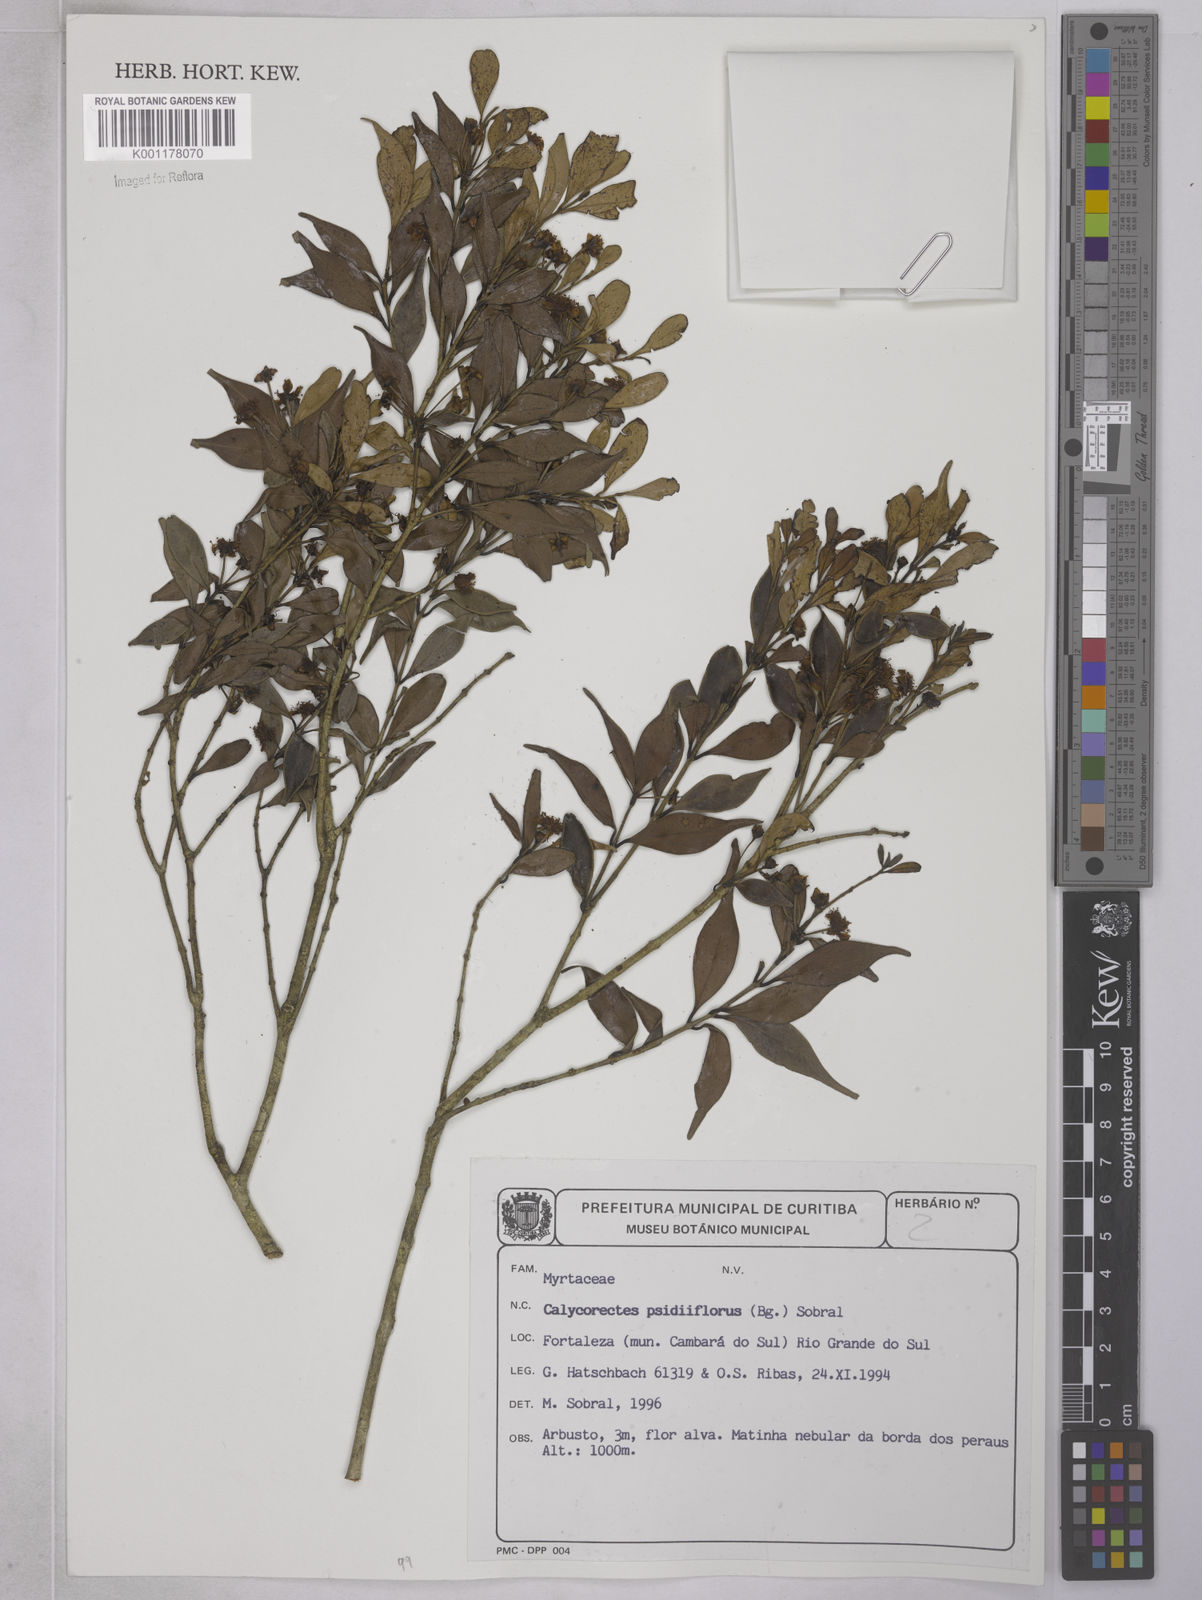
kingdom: Plantae
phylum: Tracheophyta
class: Magnoliopsida
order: Myrtales
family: Myrtaceae
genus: Eugenia
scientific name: Eugenia subterminalis
